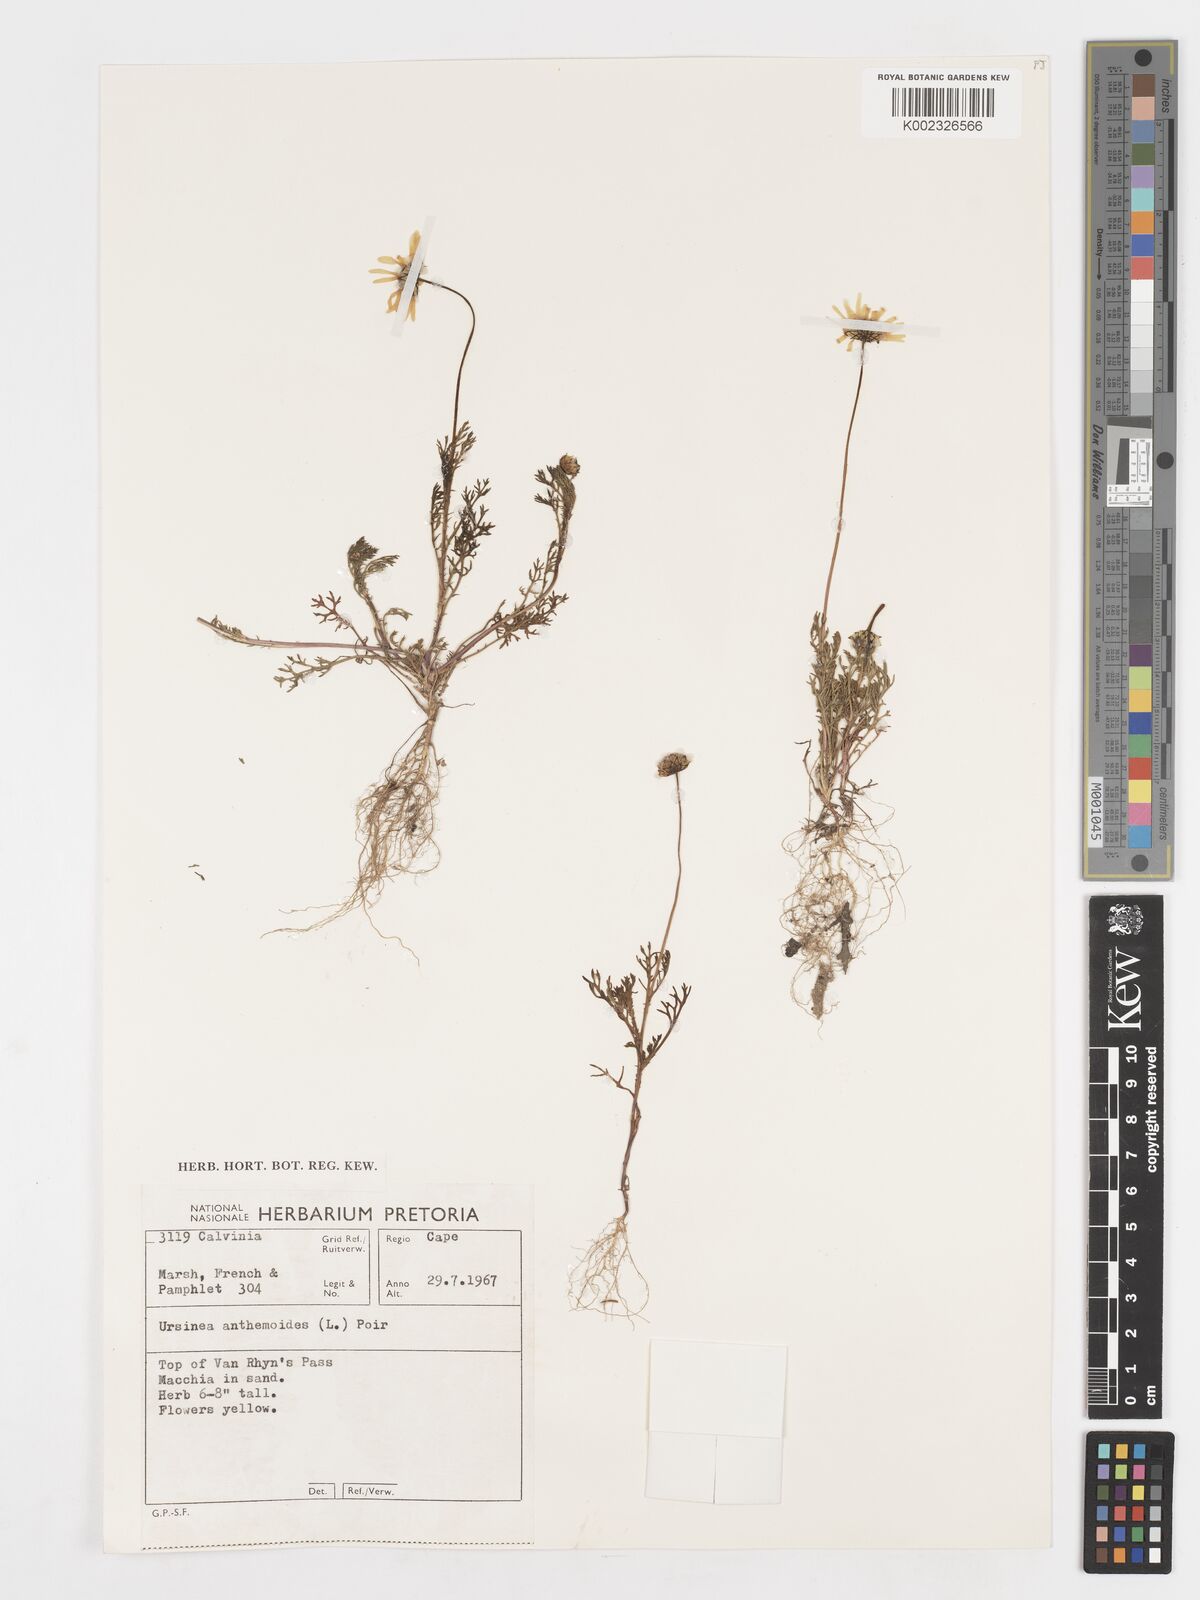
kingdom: Plantae
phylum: Tracheophyta
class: Magnoliopsida
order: Asterales
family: Asteraceae
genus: Ursinia
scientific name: Ursinia anethoides
